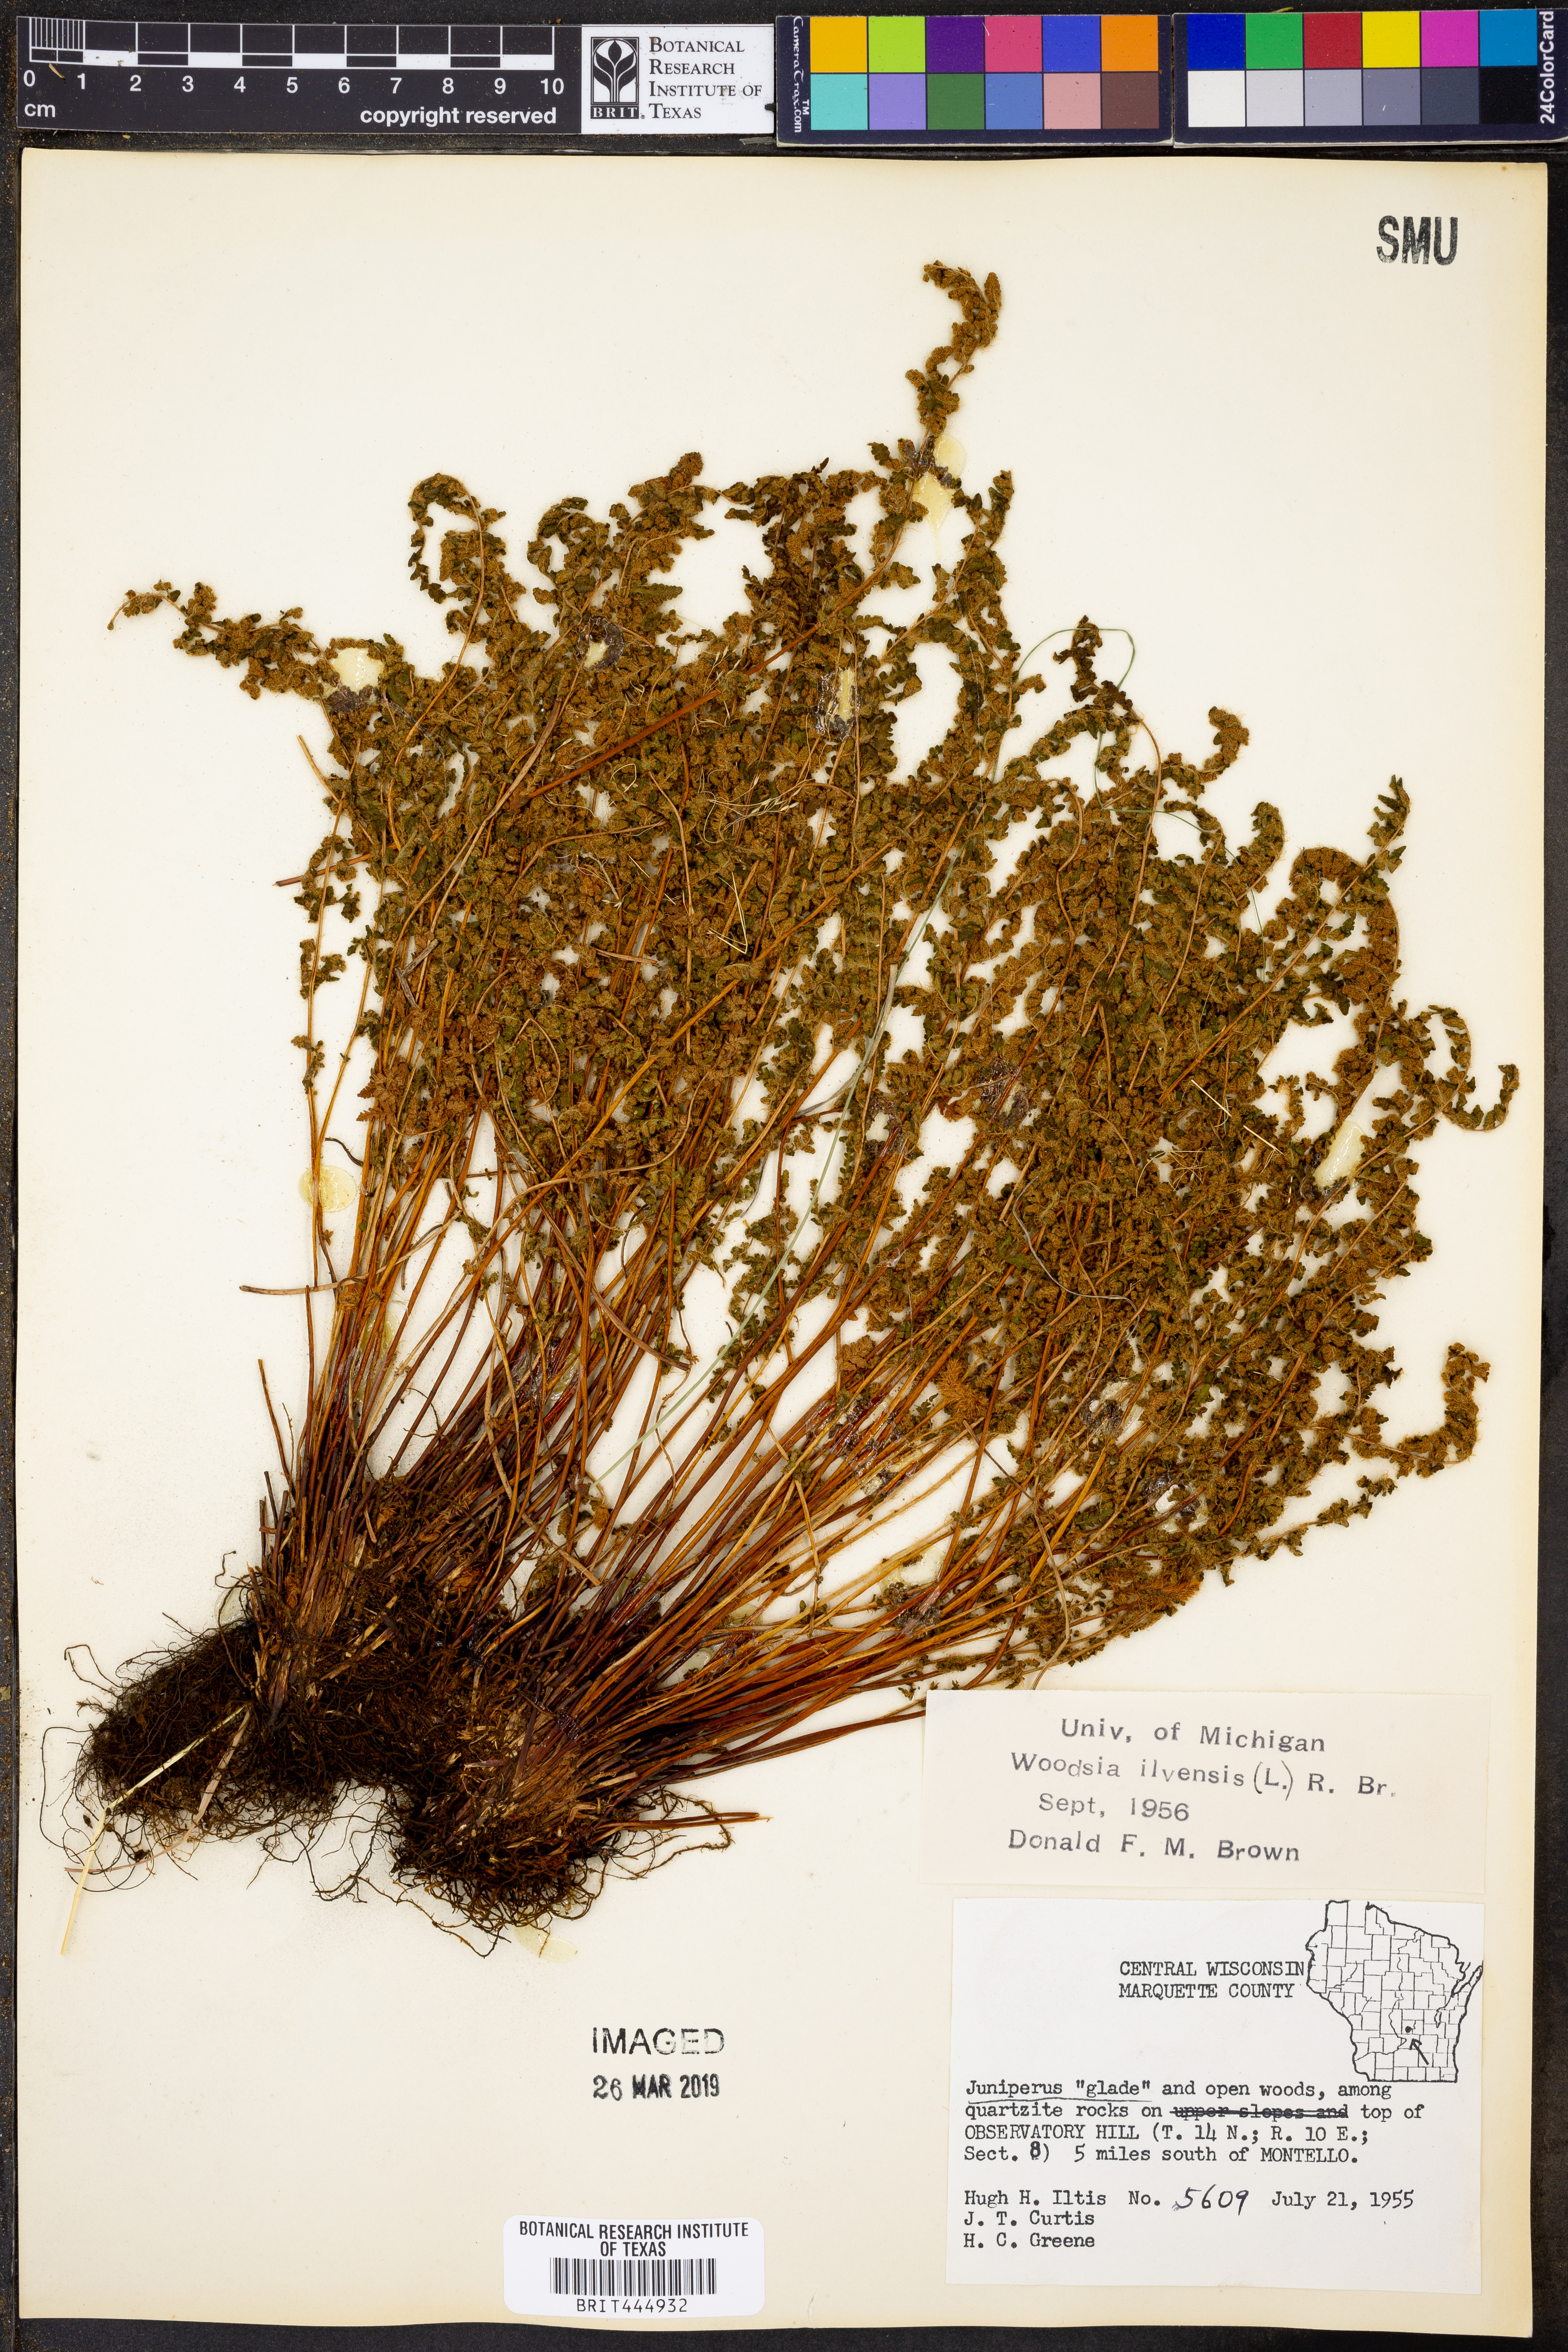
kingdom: Plantae
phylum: Tracheophyta
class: Polypodiopsida
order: Polypodiales
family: Woodsiaceae
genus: Woodsia
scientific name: Woodsia ilvensis
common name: Fragrant woodsia
